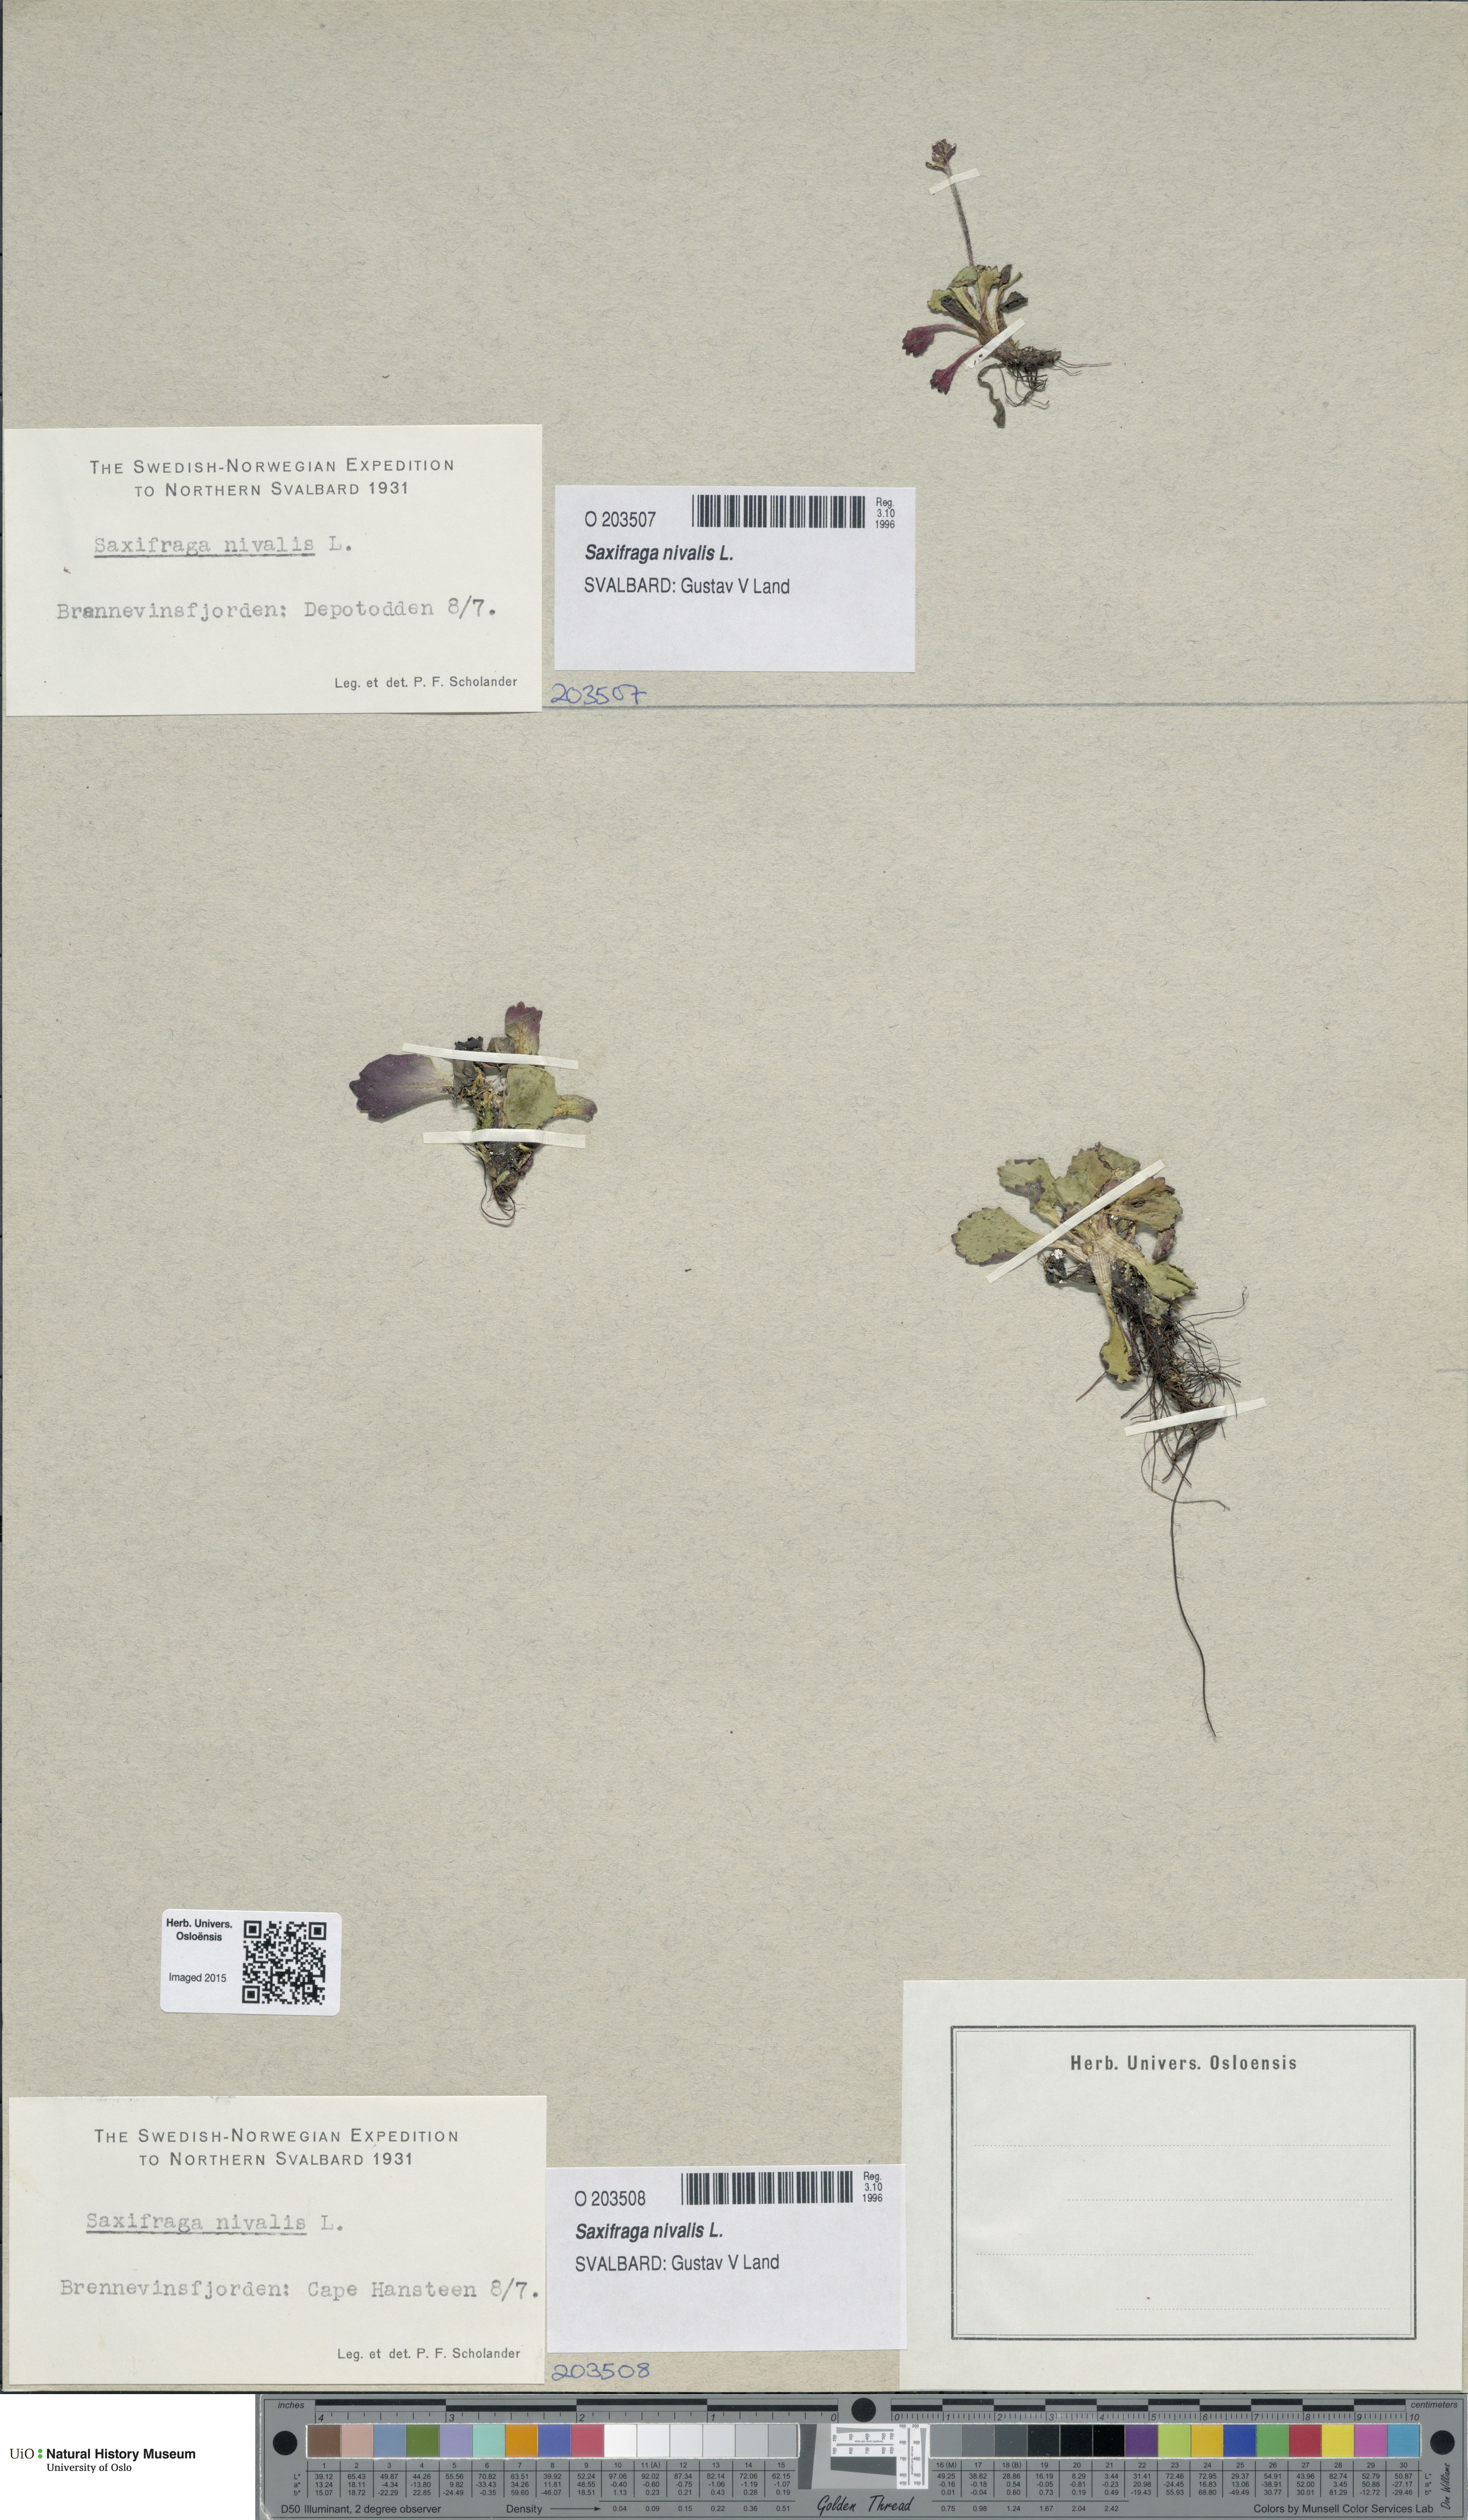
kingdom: Plantae
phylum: Tracheophyta
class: Magnoliopsida
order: Saxifragales
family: Saxifragaceae
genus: Micranthes
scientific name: Micranthes nivalis
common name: Alpine saxifrage
